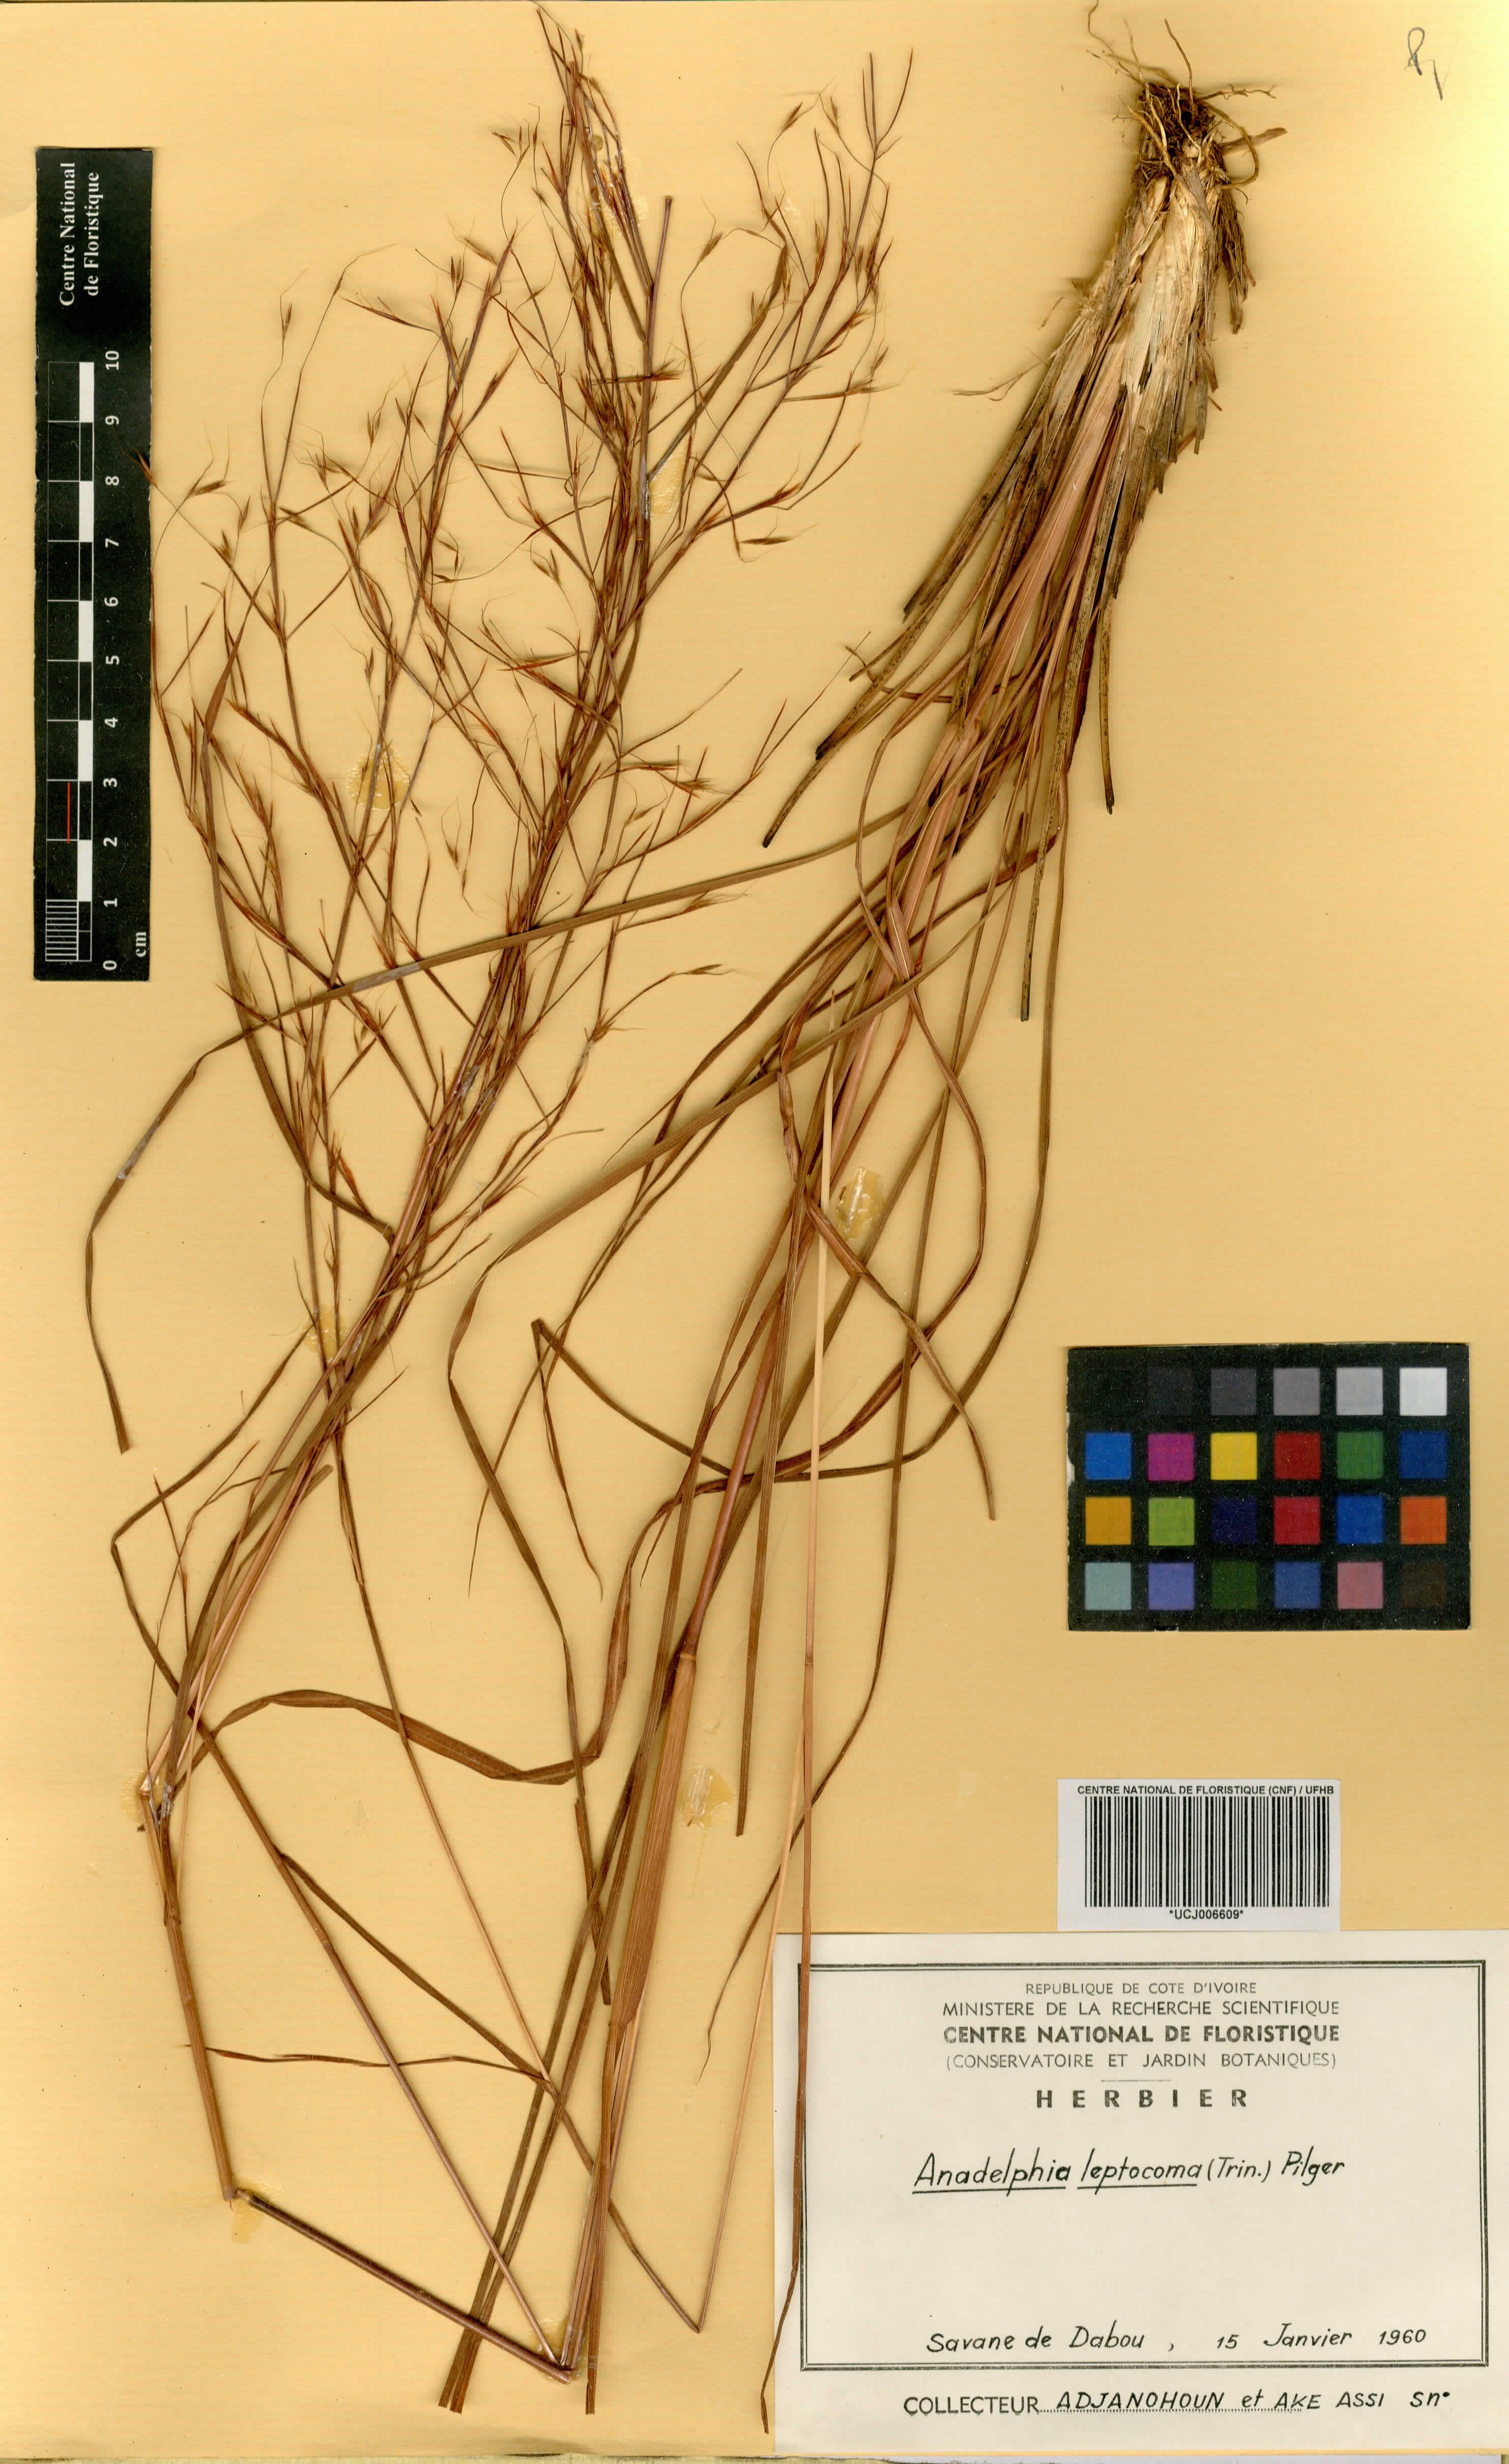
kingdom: Plantae
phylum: Tracheophyta
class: Liliopsida
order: Poales
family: Poaceae
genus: Anadelphia
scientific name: Anadelphia leptocoma
